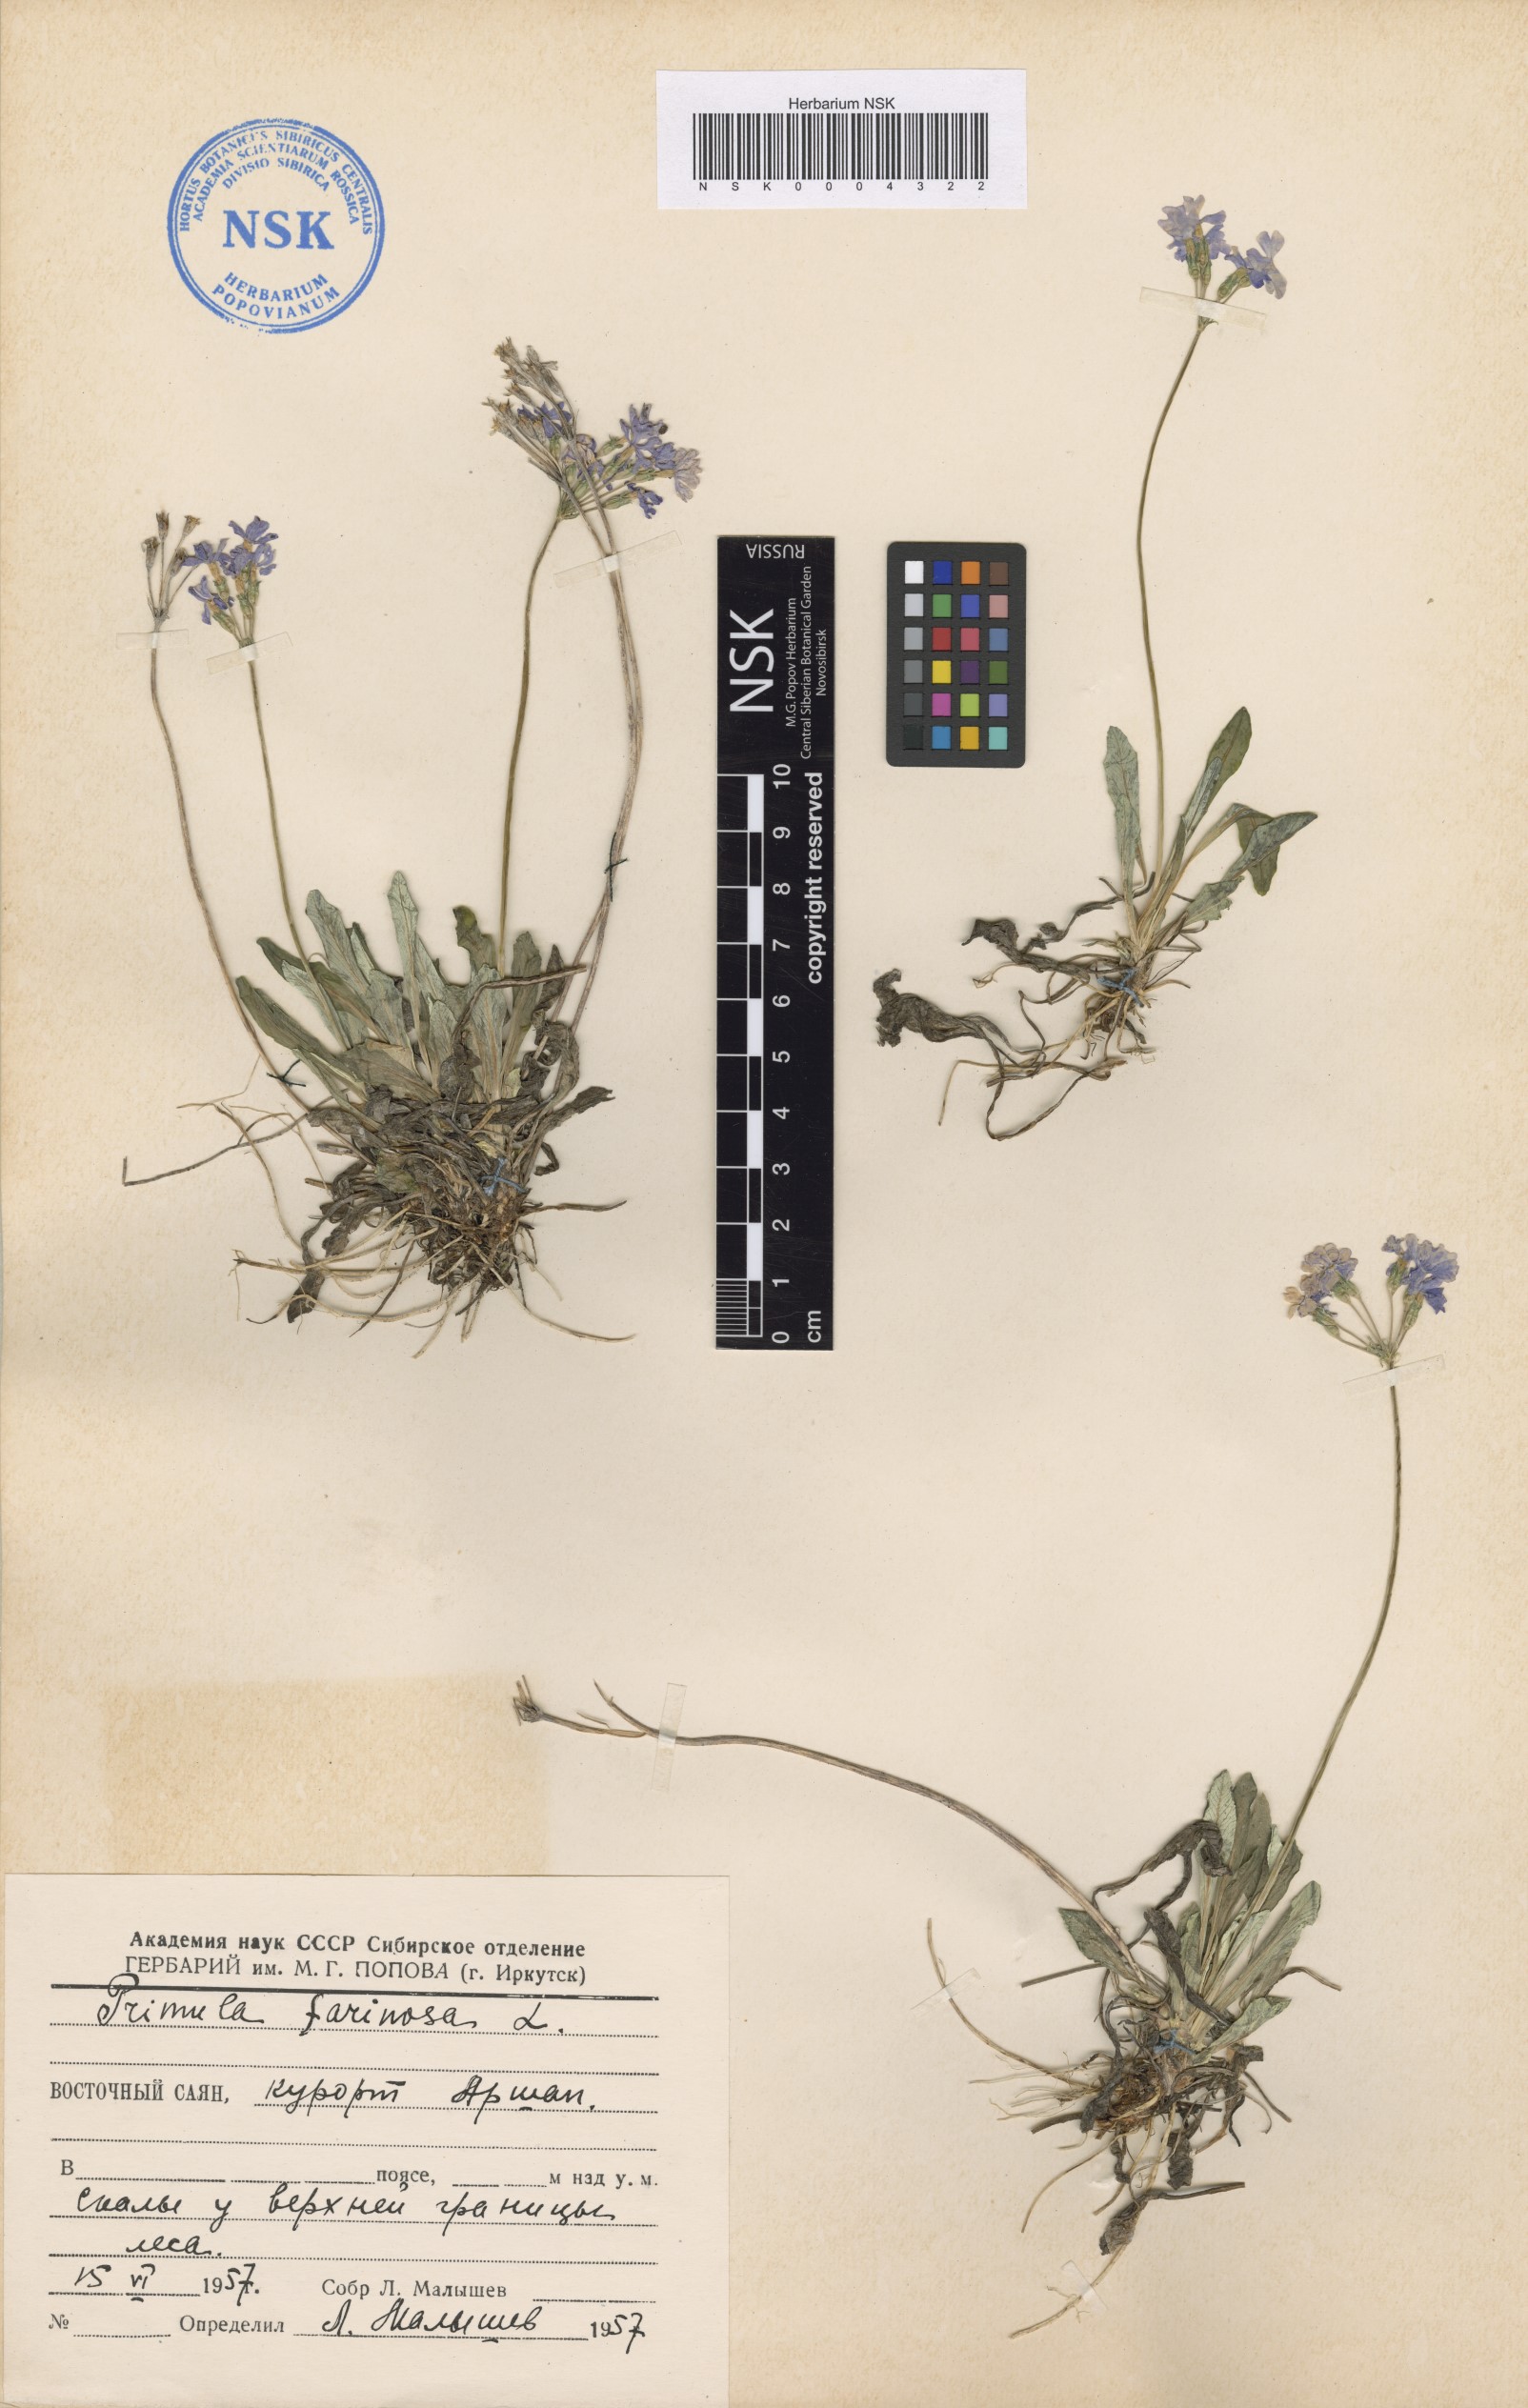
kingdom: Plantae
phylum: Tracheophyta
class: Magnoliopsida
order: Ericales
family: Primulaceae
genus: Primula
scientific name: Primula farinosa
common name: Bird's-eye primrose
